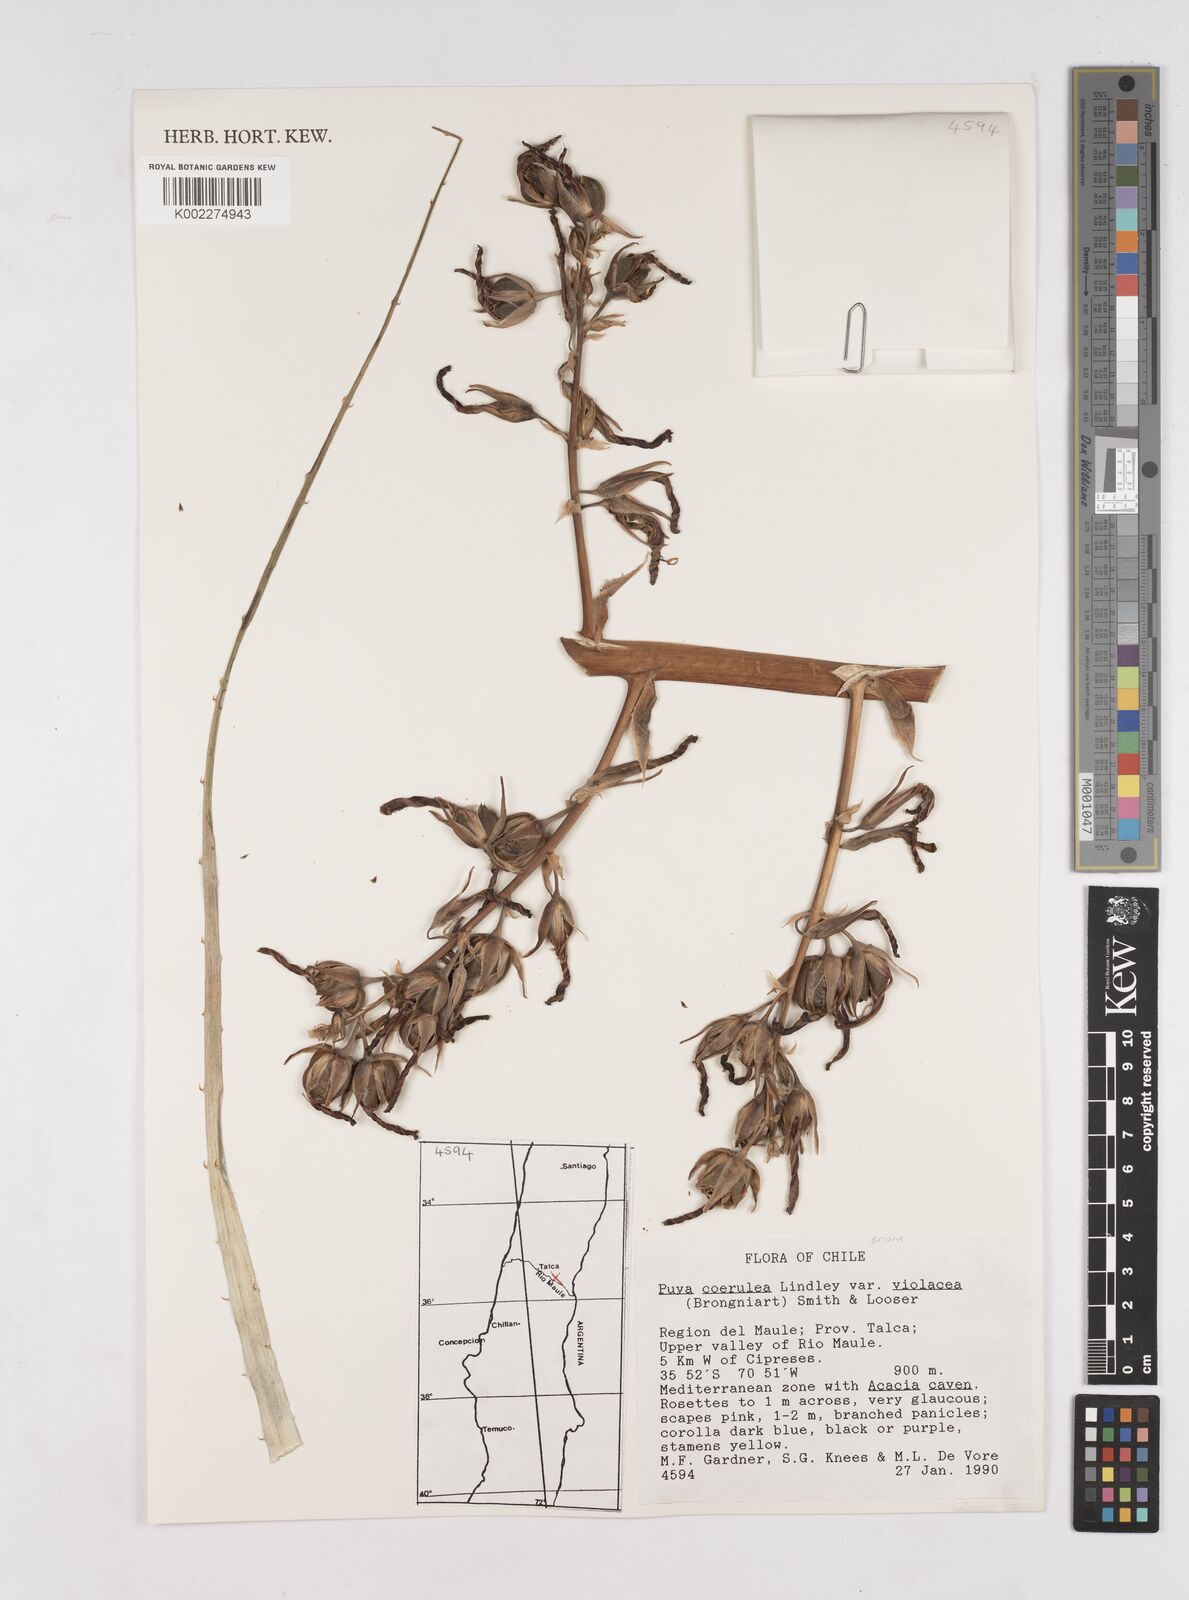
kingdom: Plantae
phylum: Tracheophyta
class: Liliopsida
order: Poales
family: Bromeliaceae
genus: Puya
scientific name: Puya coerulea
